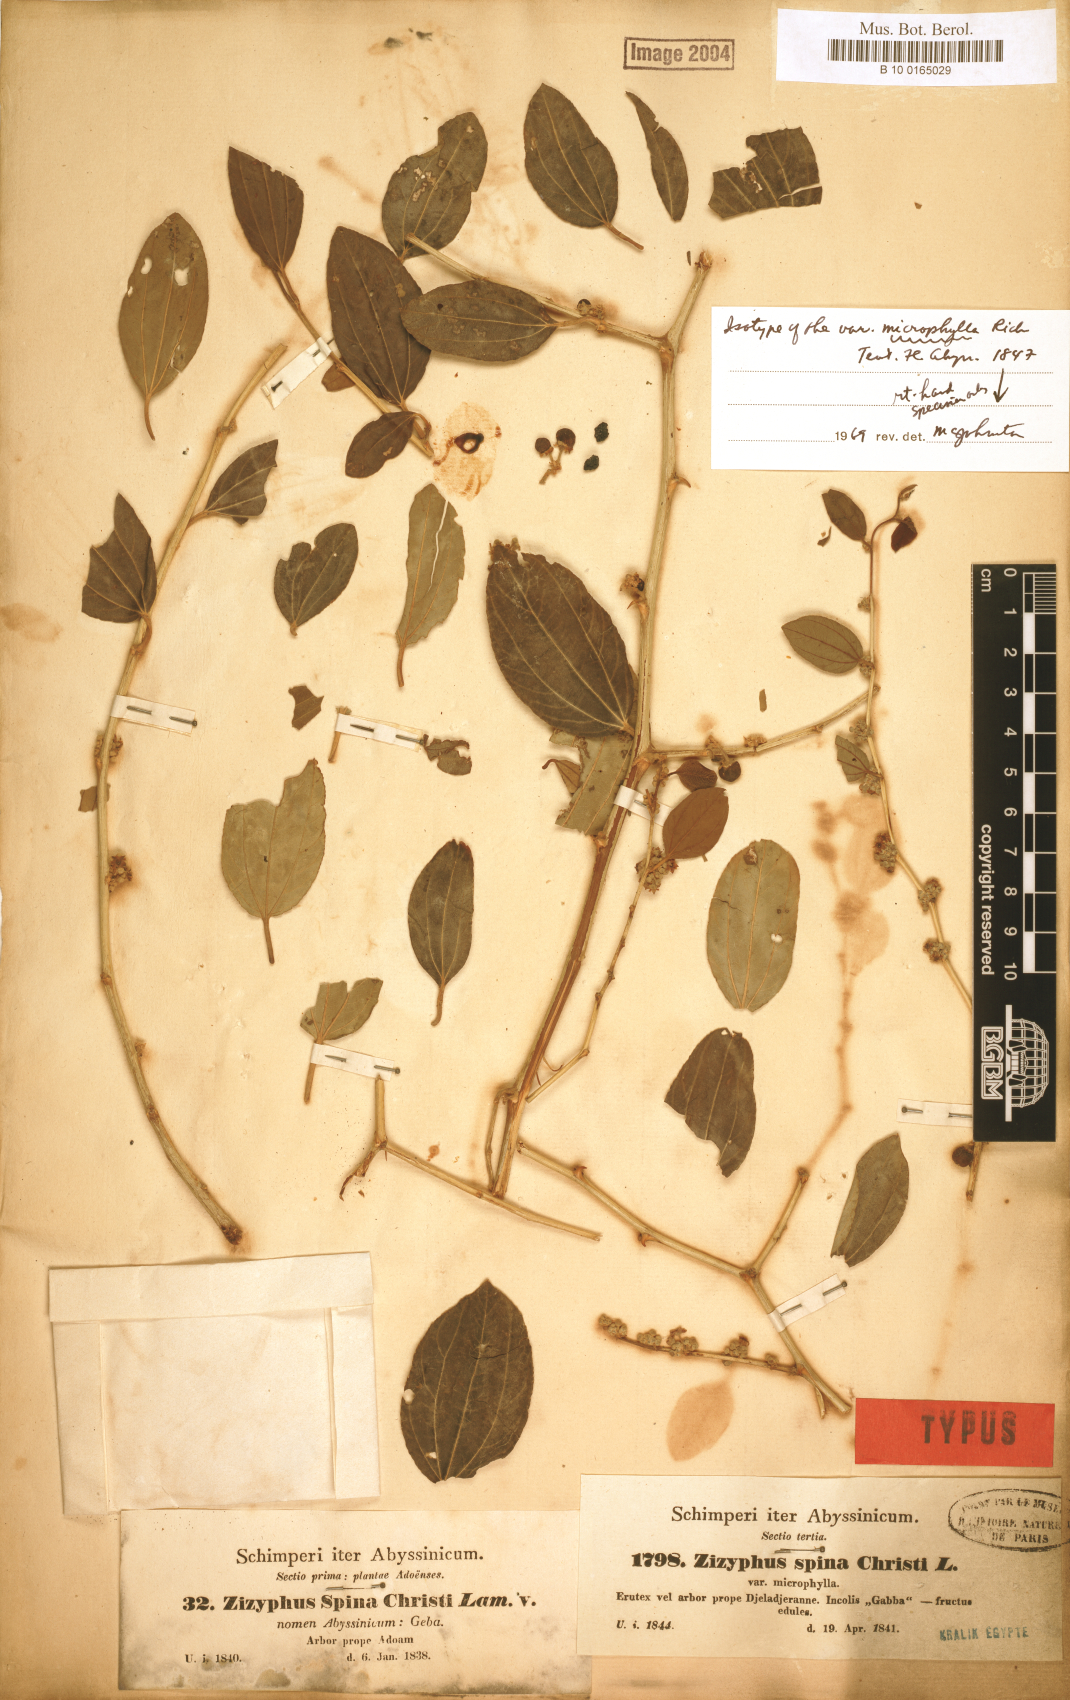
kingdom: Plantae
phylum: Tracheophyta
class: Magnoliopsida
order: Rosales
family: Rhamnaceae
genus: Ziziphus
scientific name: Ziziphus spina-christi
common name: Syrian christ-thorn
